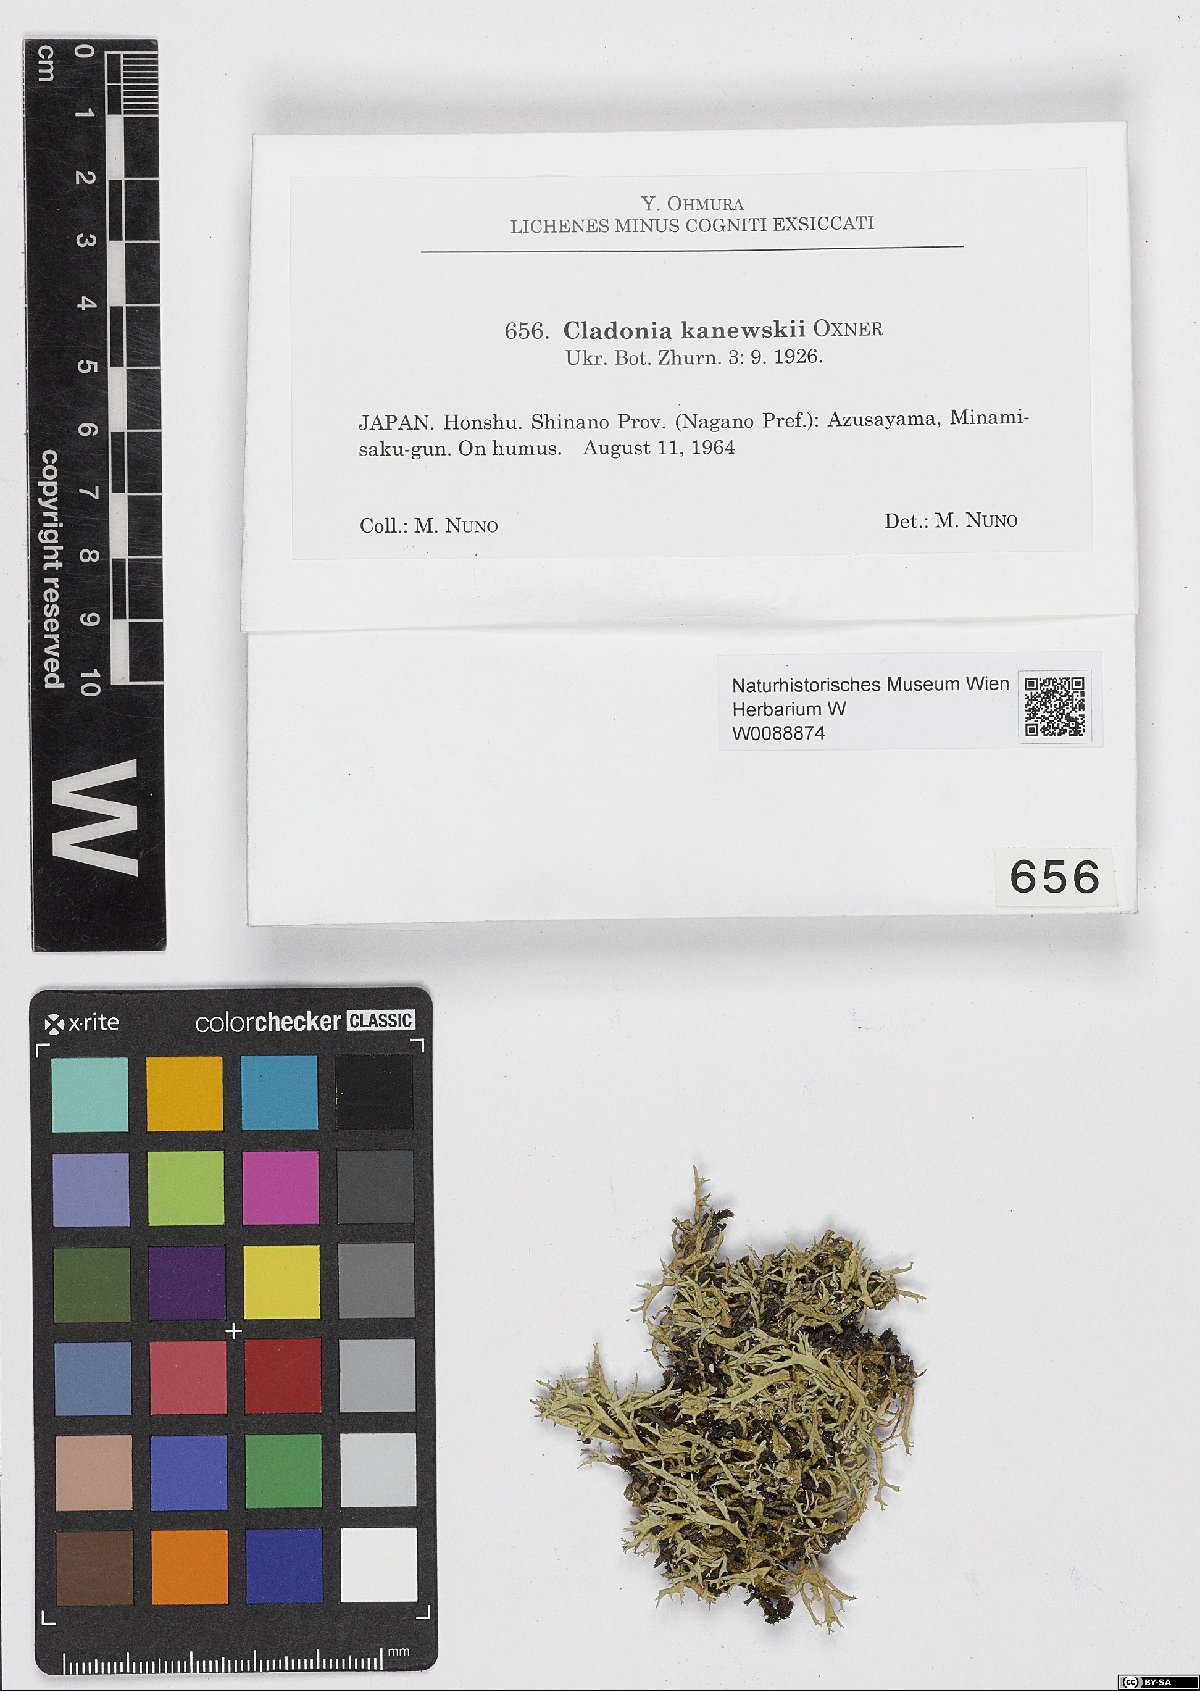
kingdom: Fungi
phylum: Ascomycota
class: Lecanoromycetes
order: Lecanorales
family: Cladoniaceae
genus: Cladonia
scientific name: Cladonia zopfii
